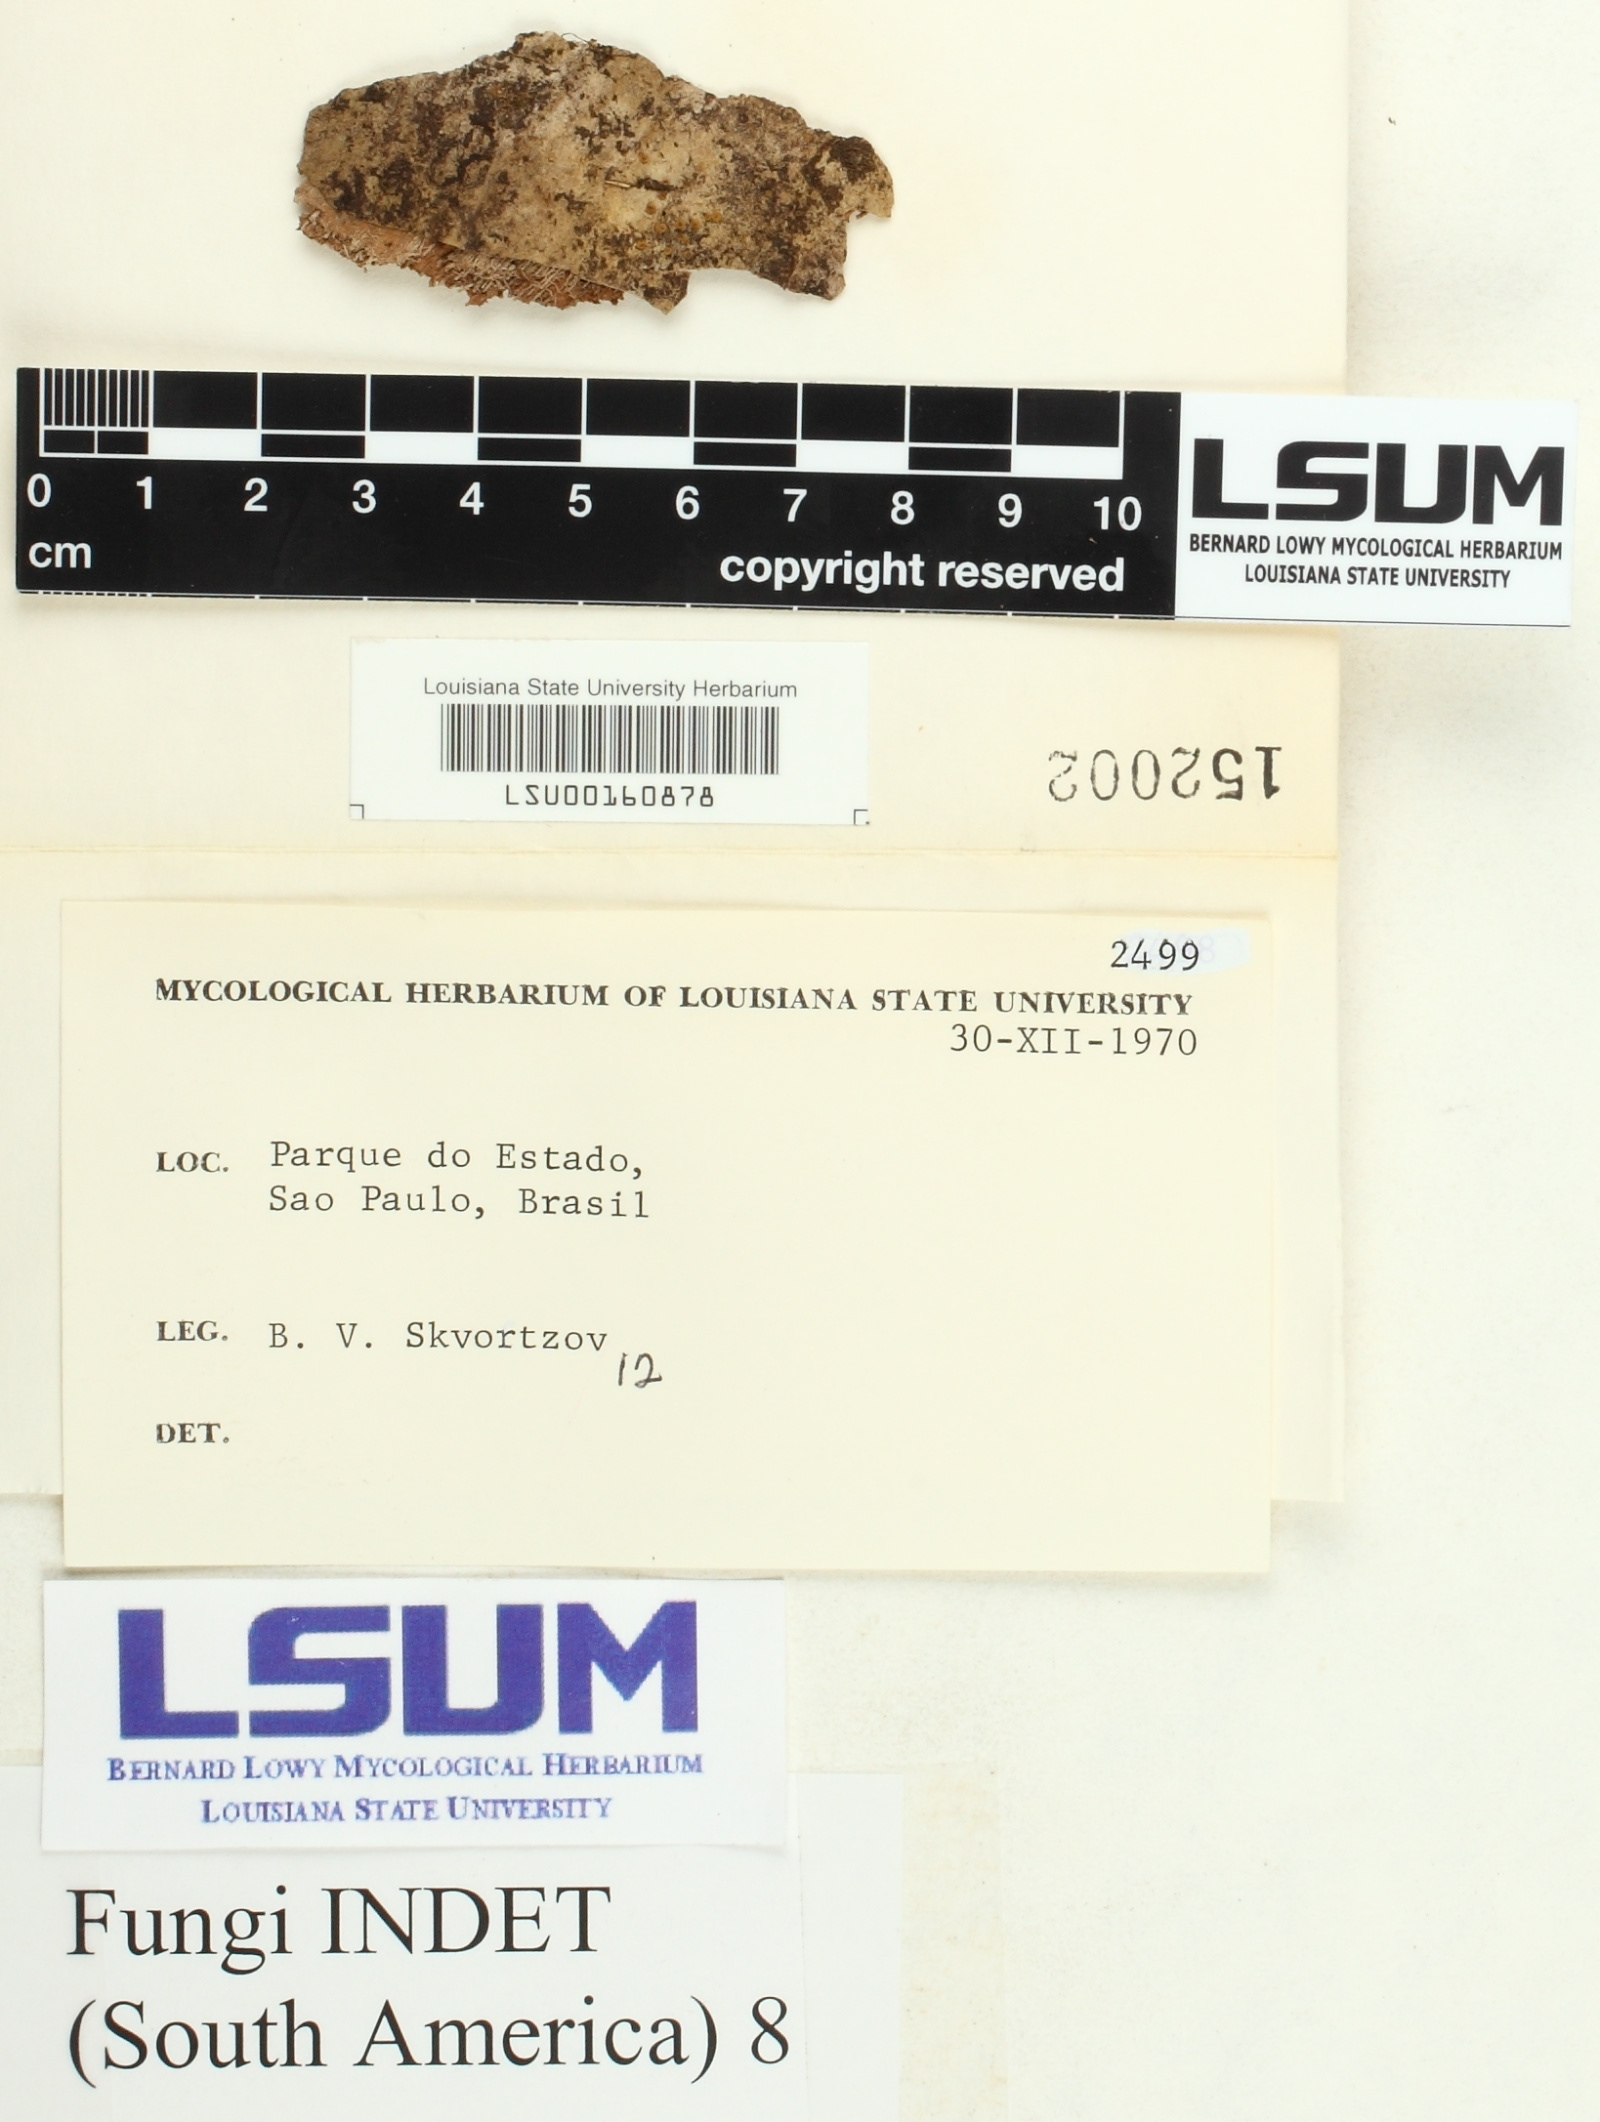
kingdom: Fungi
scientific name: Fungi
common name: Fungi
